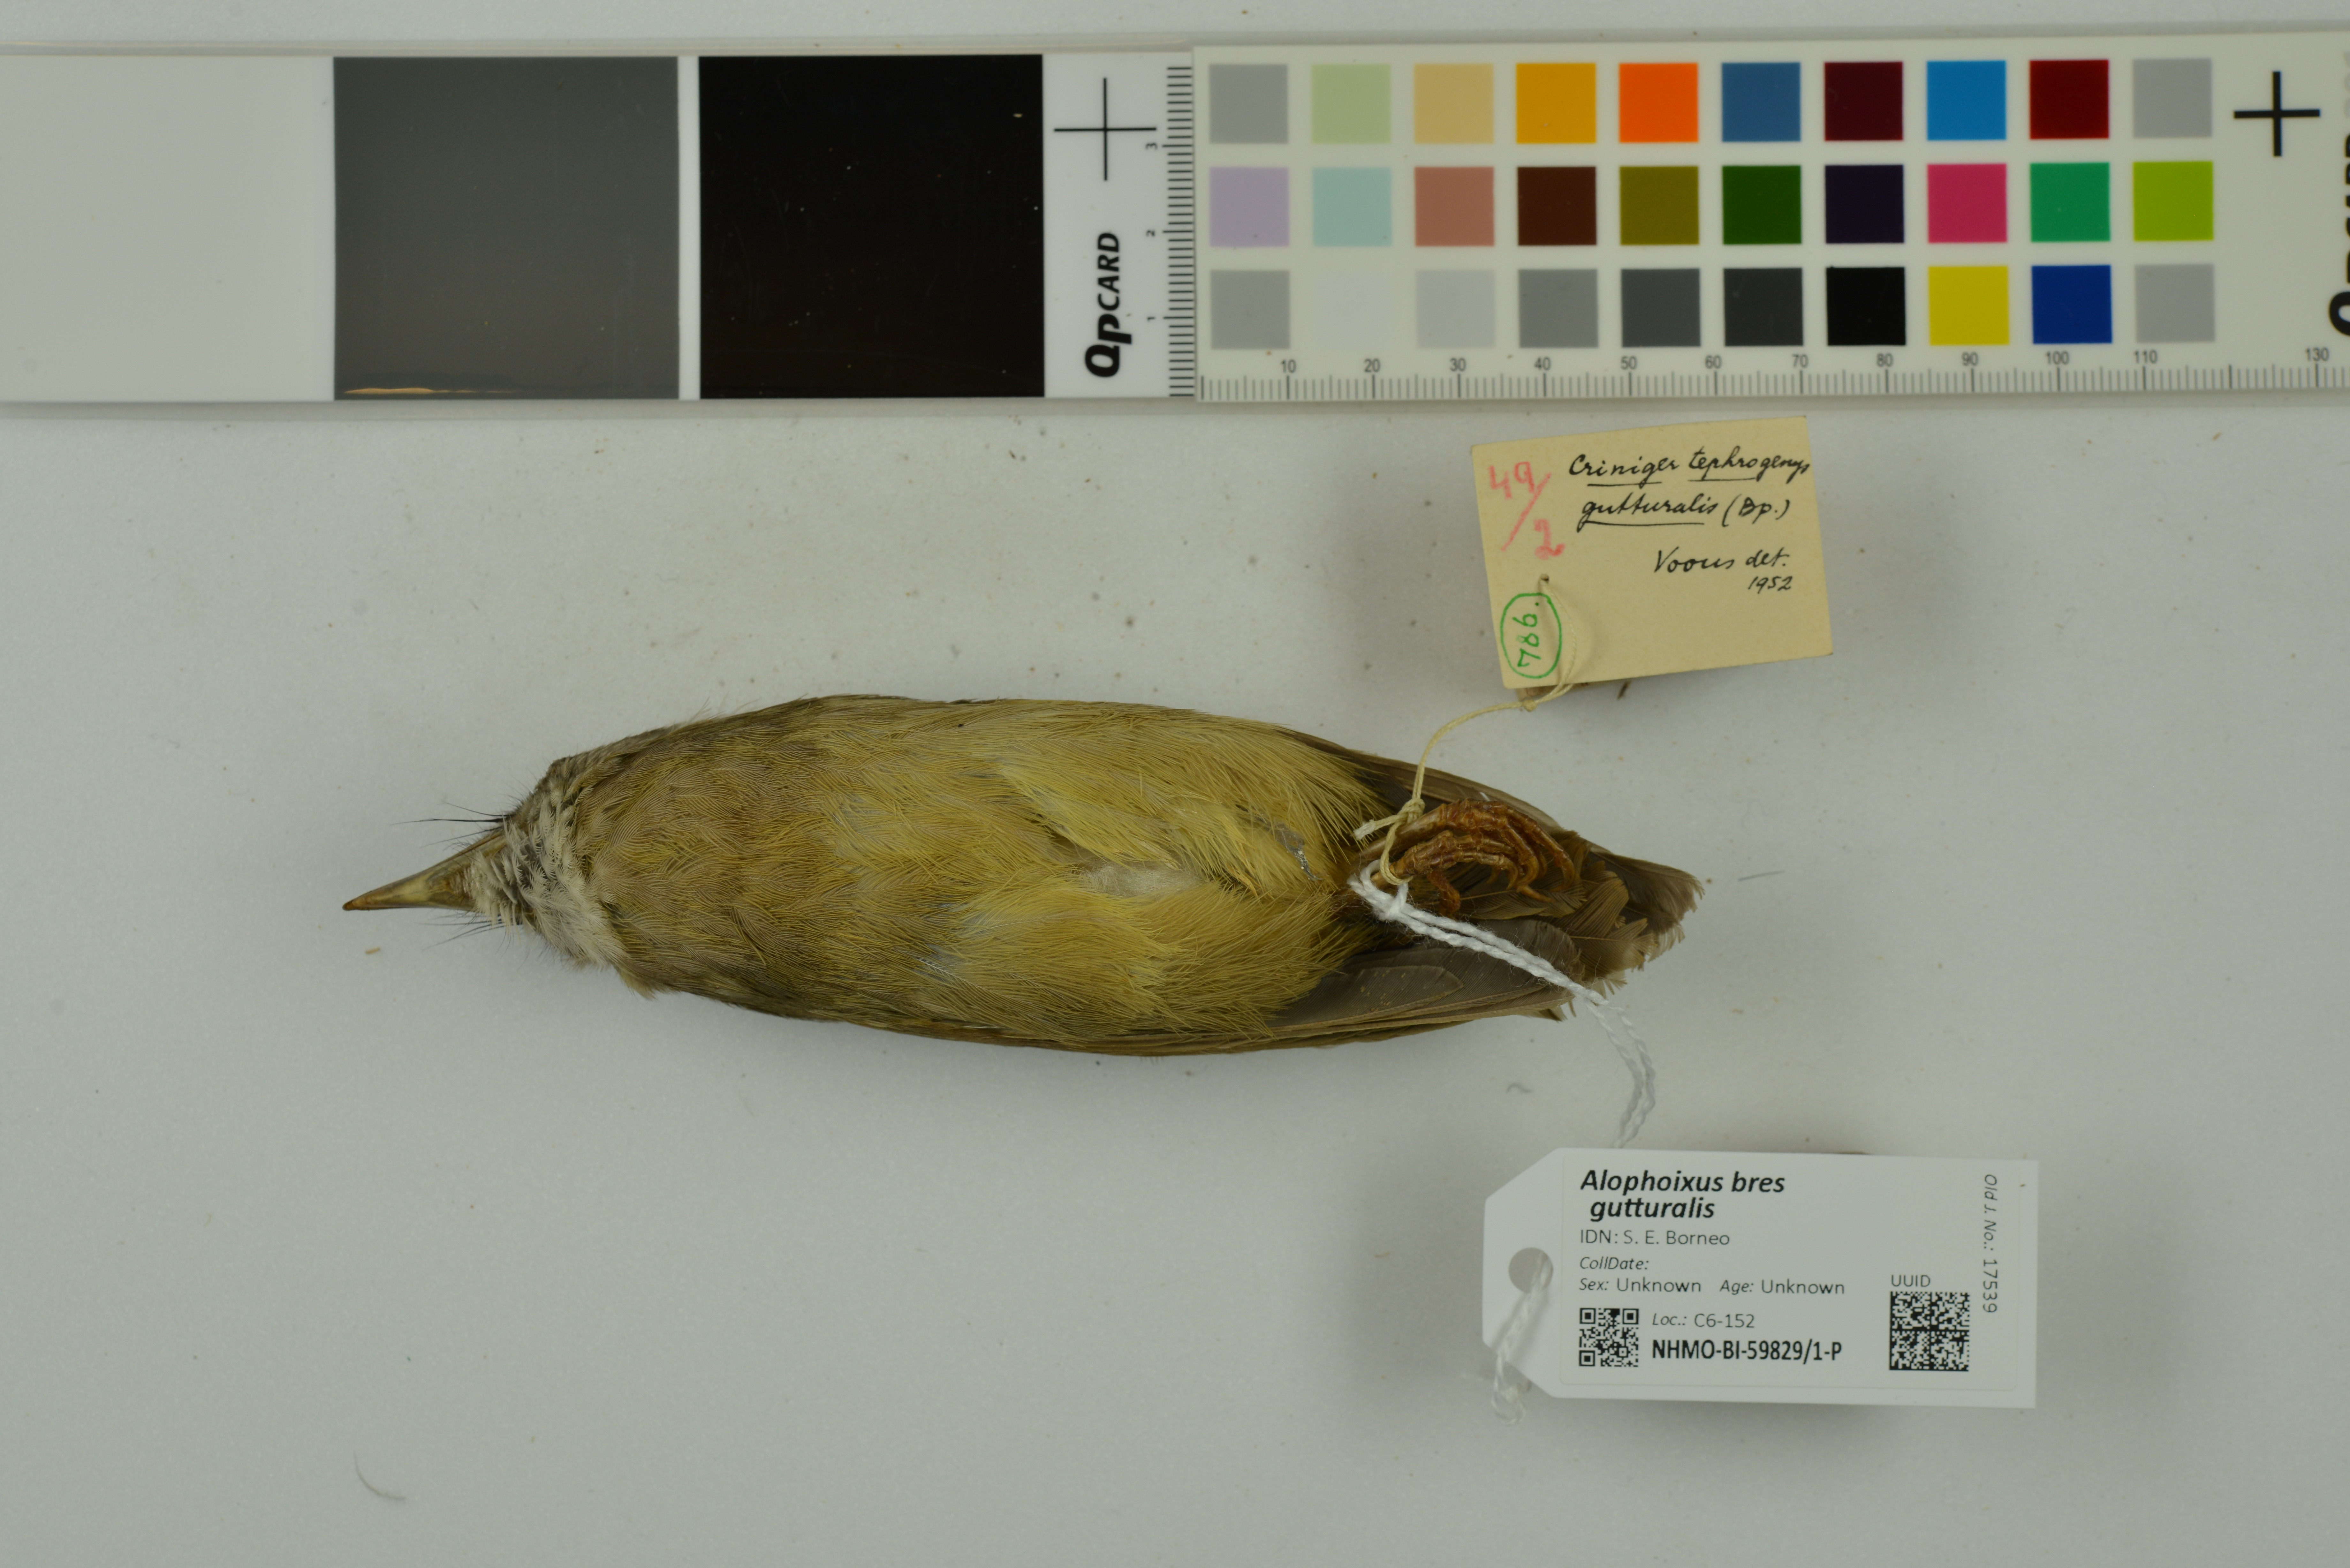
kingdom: Animalia
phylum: Chordata
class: Aves
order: Passeriformes
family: Pycnonotidae
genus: Alophoixus
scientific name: Alophoixus bres
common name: Gray-cheeked bulbul
